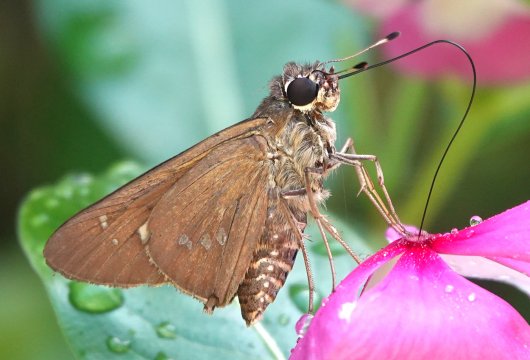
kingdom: Animalia
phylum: Arthropoda
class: Insecta
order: Lepidoptera
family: Hesperiidae
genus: Calpodes
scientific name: Calpodes ethlius
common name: Brazilian Skipper
